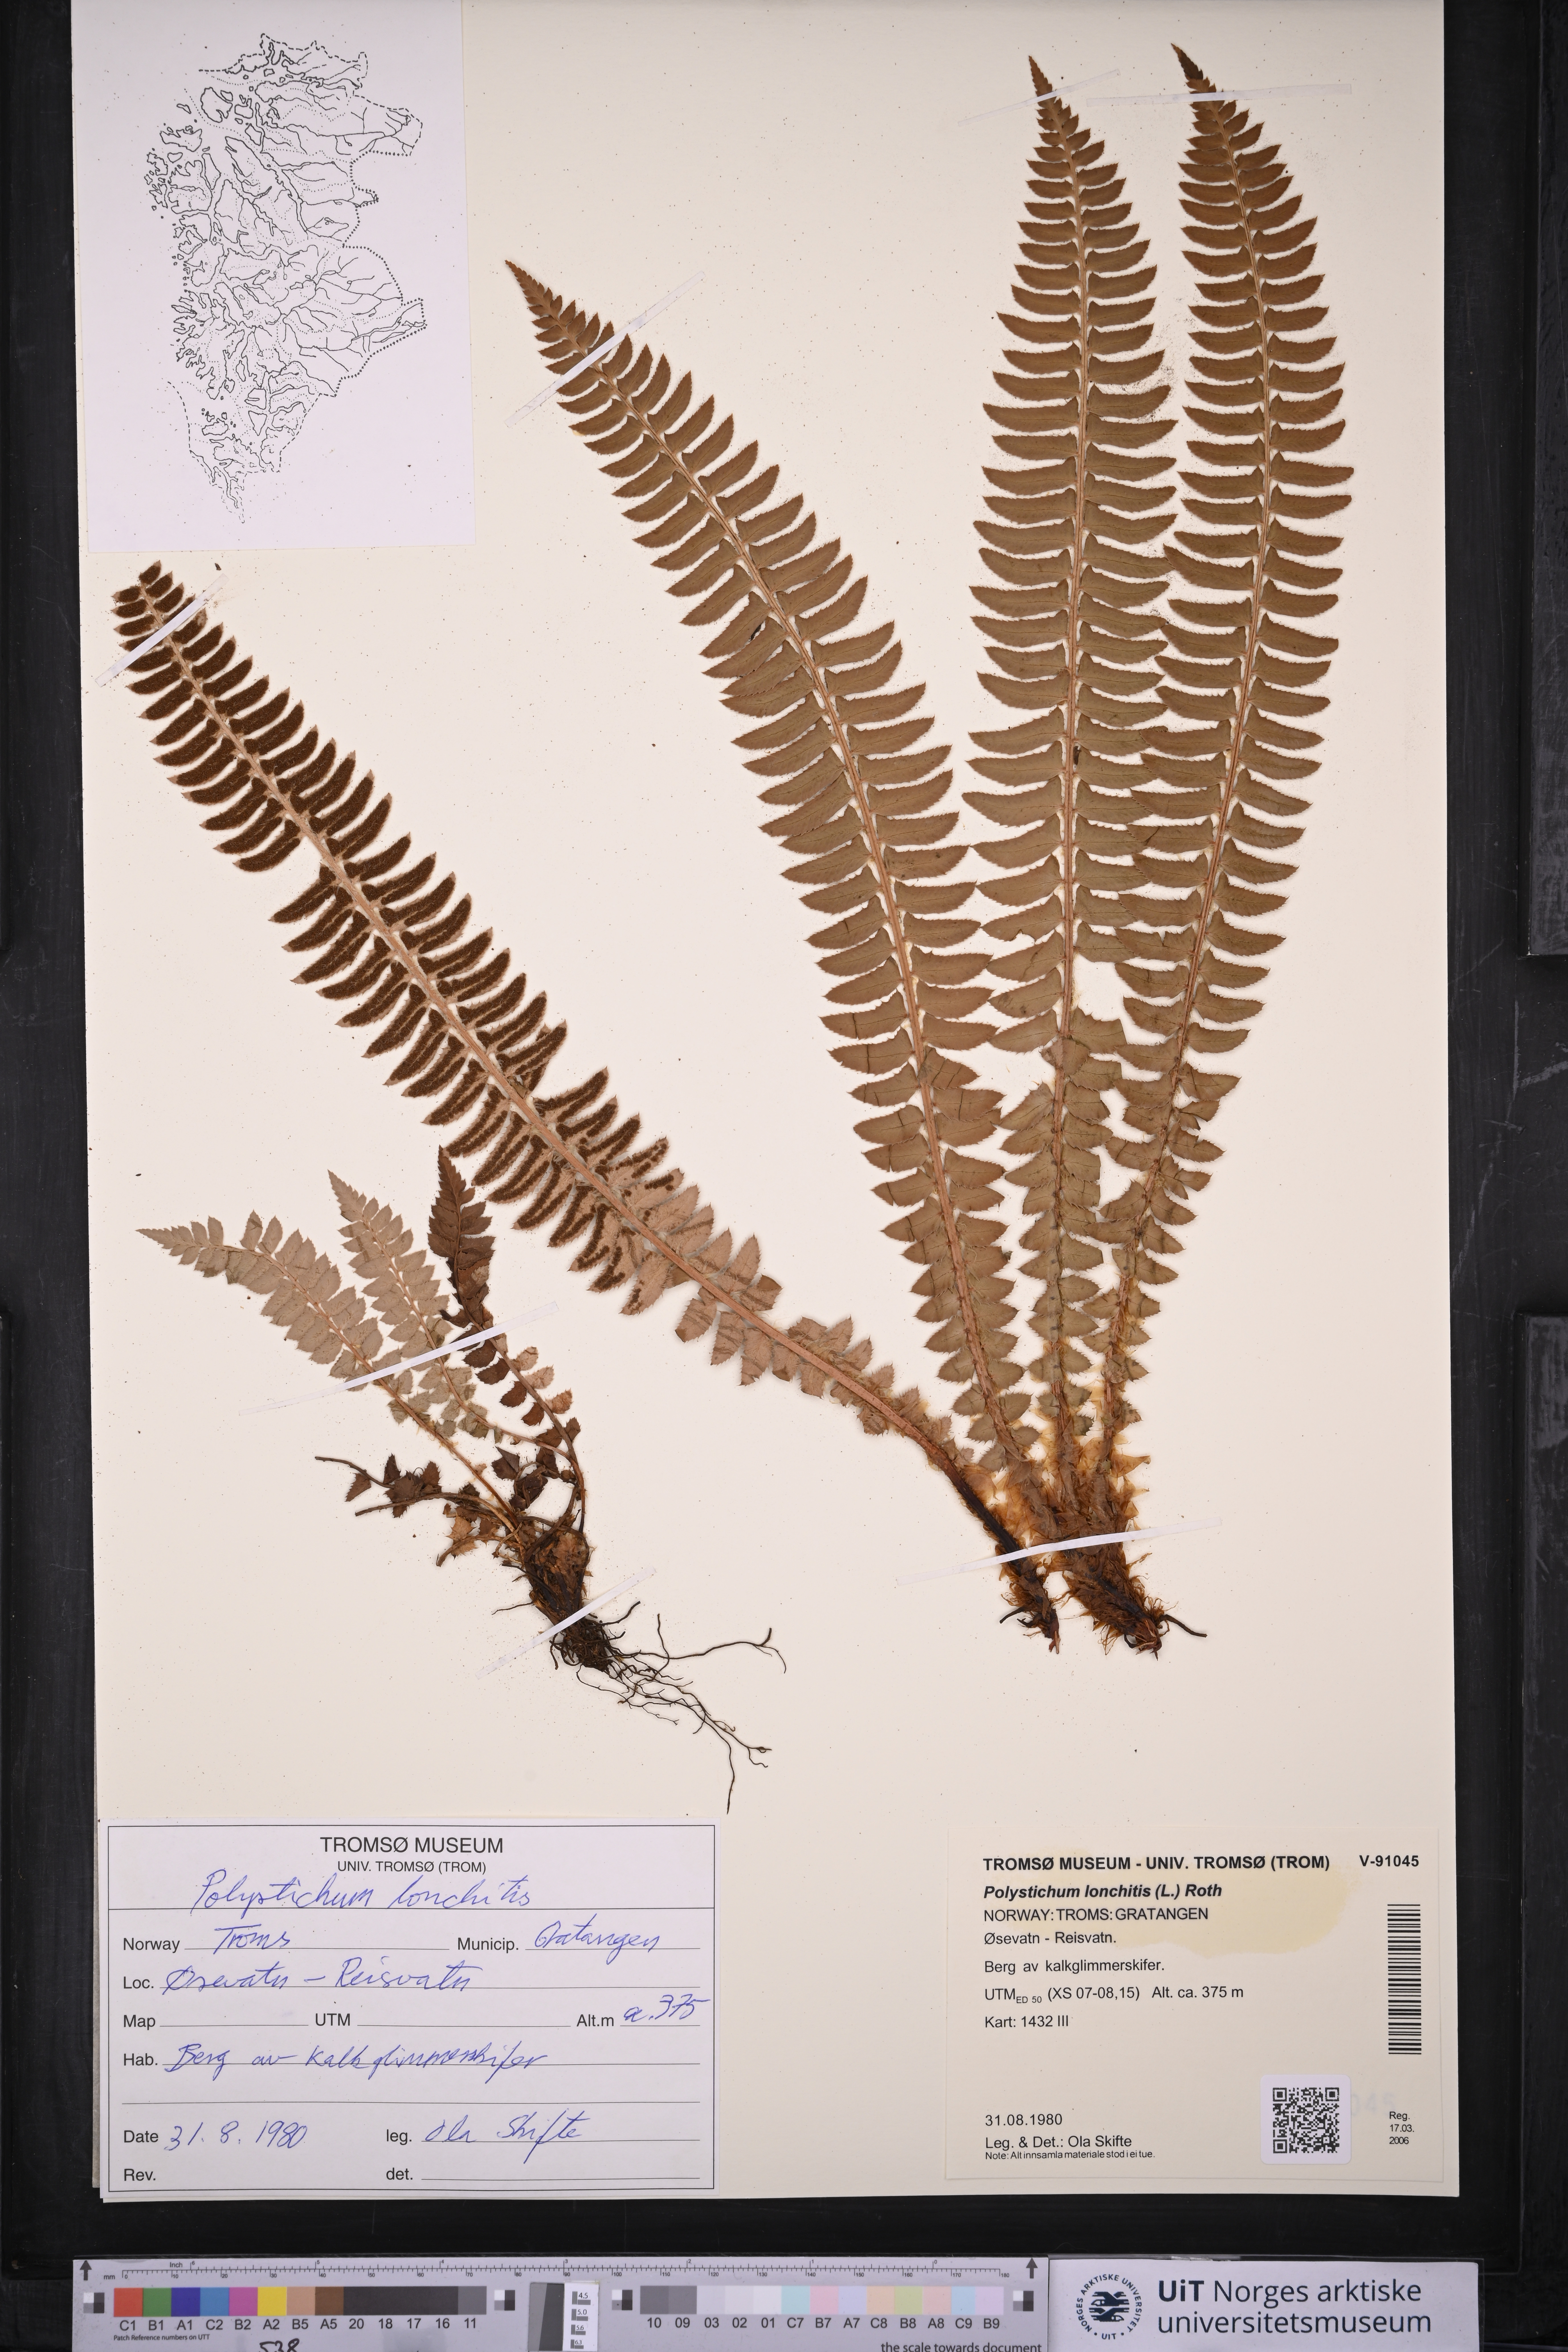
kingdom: Plantae
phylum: Tracheophyta
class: Polypodiopsida
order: Polypodiales
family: Dryopteridaceae
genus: Polystichum
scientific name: Polystichum lonchitis
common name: Holly fern
